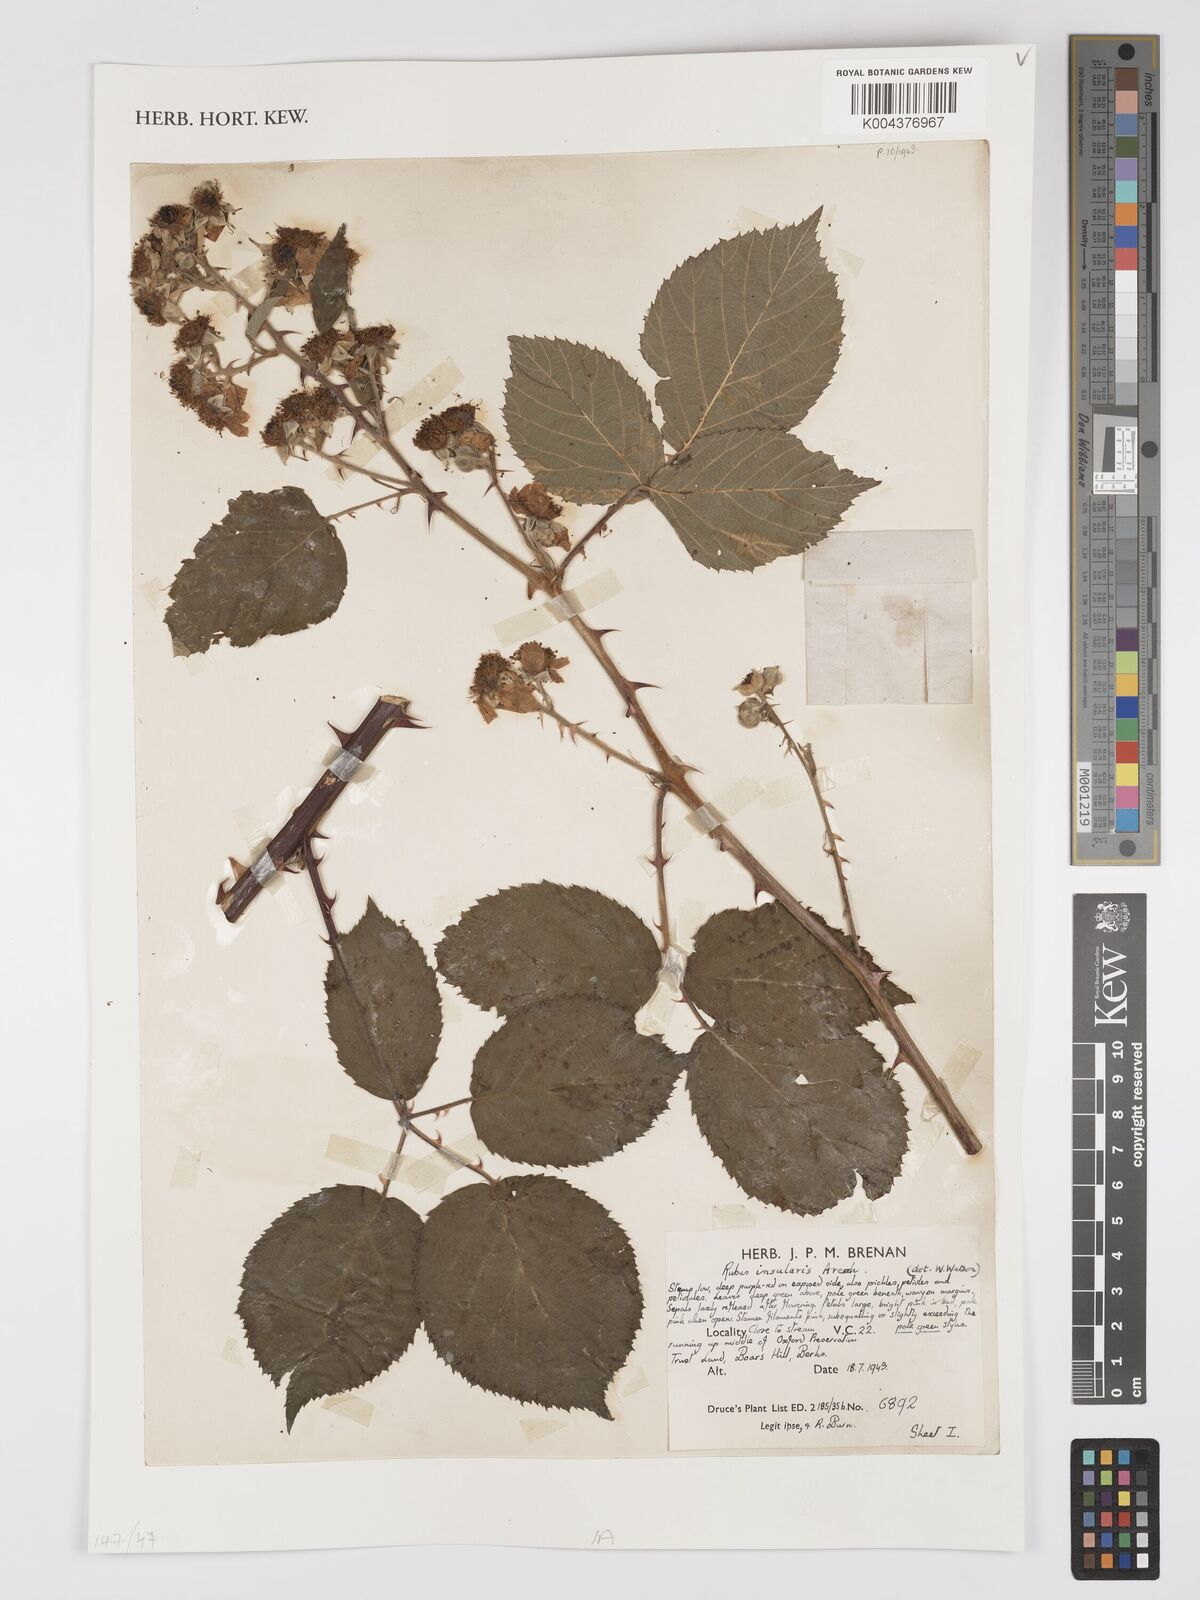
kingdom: Plantae
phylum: Tracheophyta
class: Magnoliopsida
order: Rosales
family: Rosaceae
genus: Rubus
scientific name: Rubus calvatus
